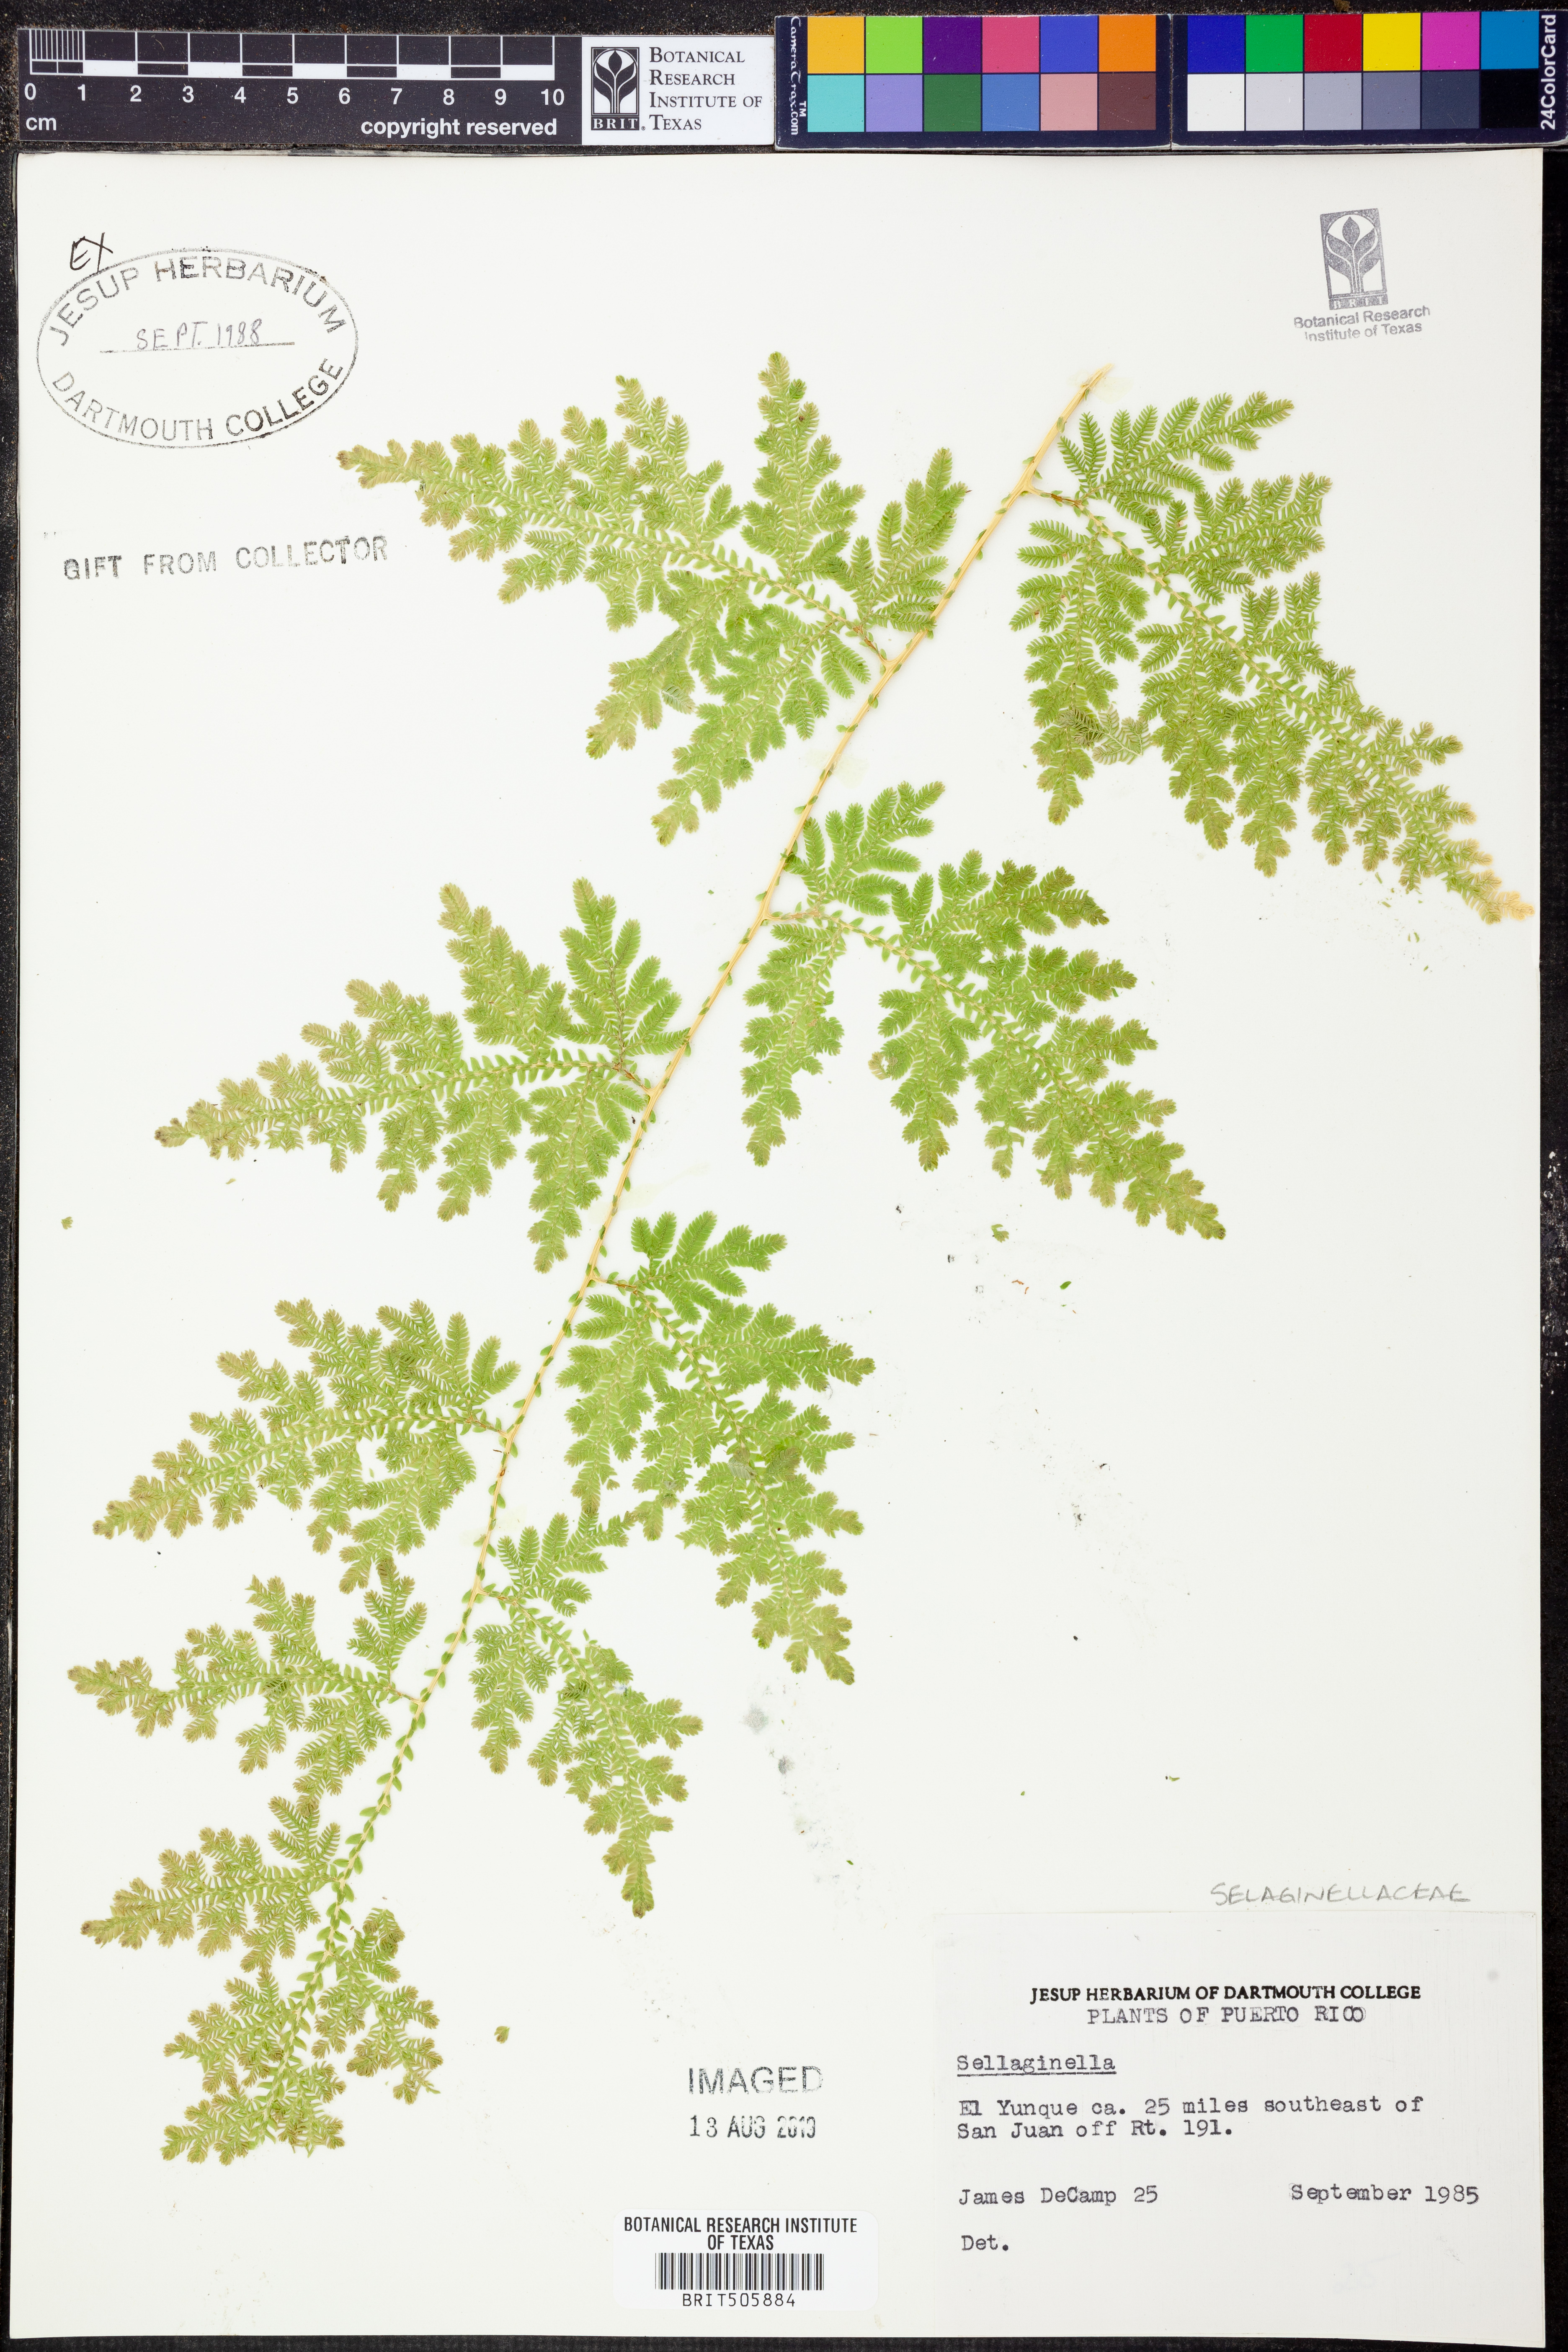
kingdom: Plantae
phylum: Tracheophyta
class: Lycopodiopsida
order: Selaginellales
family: Selaginellaceae
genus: Selaginella
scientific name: Selaginella
